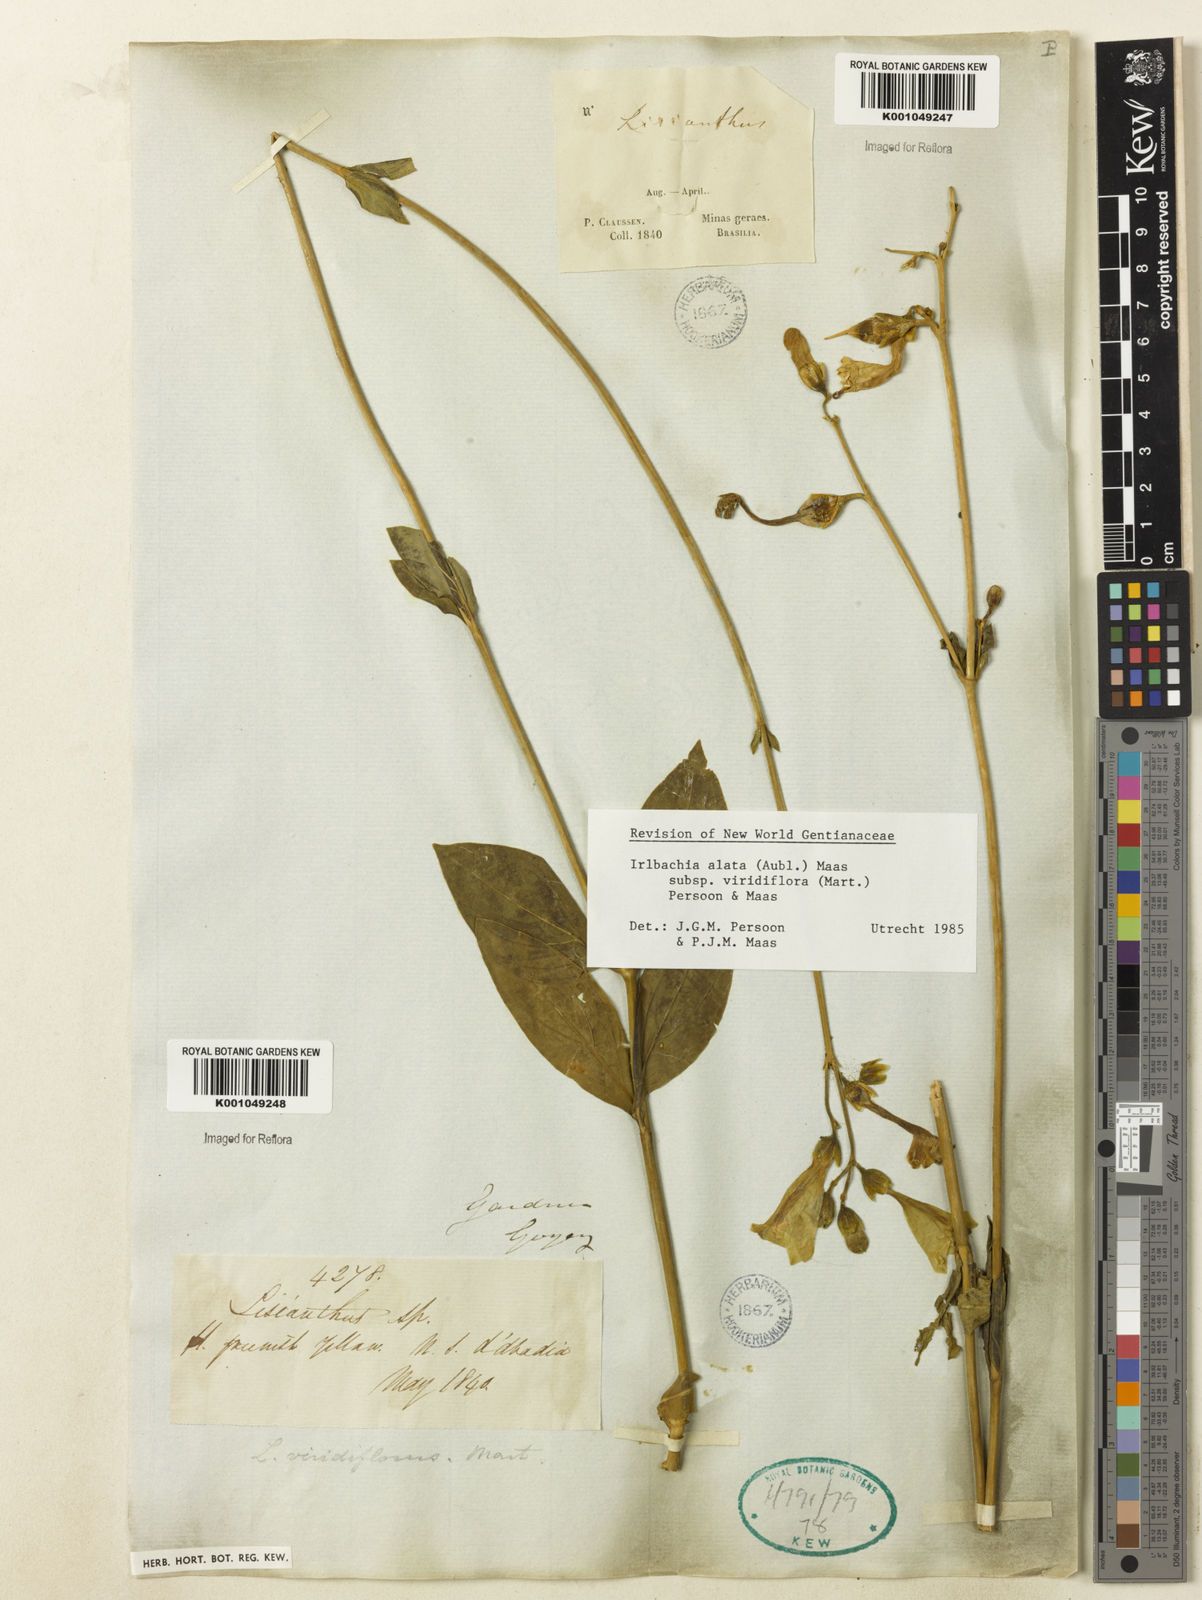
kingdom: Plantae
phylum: Tracheophyta
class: Magnoliopsida
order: Gentianales
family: Gentianaceae
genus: Chelonanthus
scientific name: Chelonanthus viridiflorus
